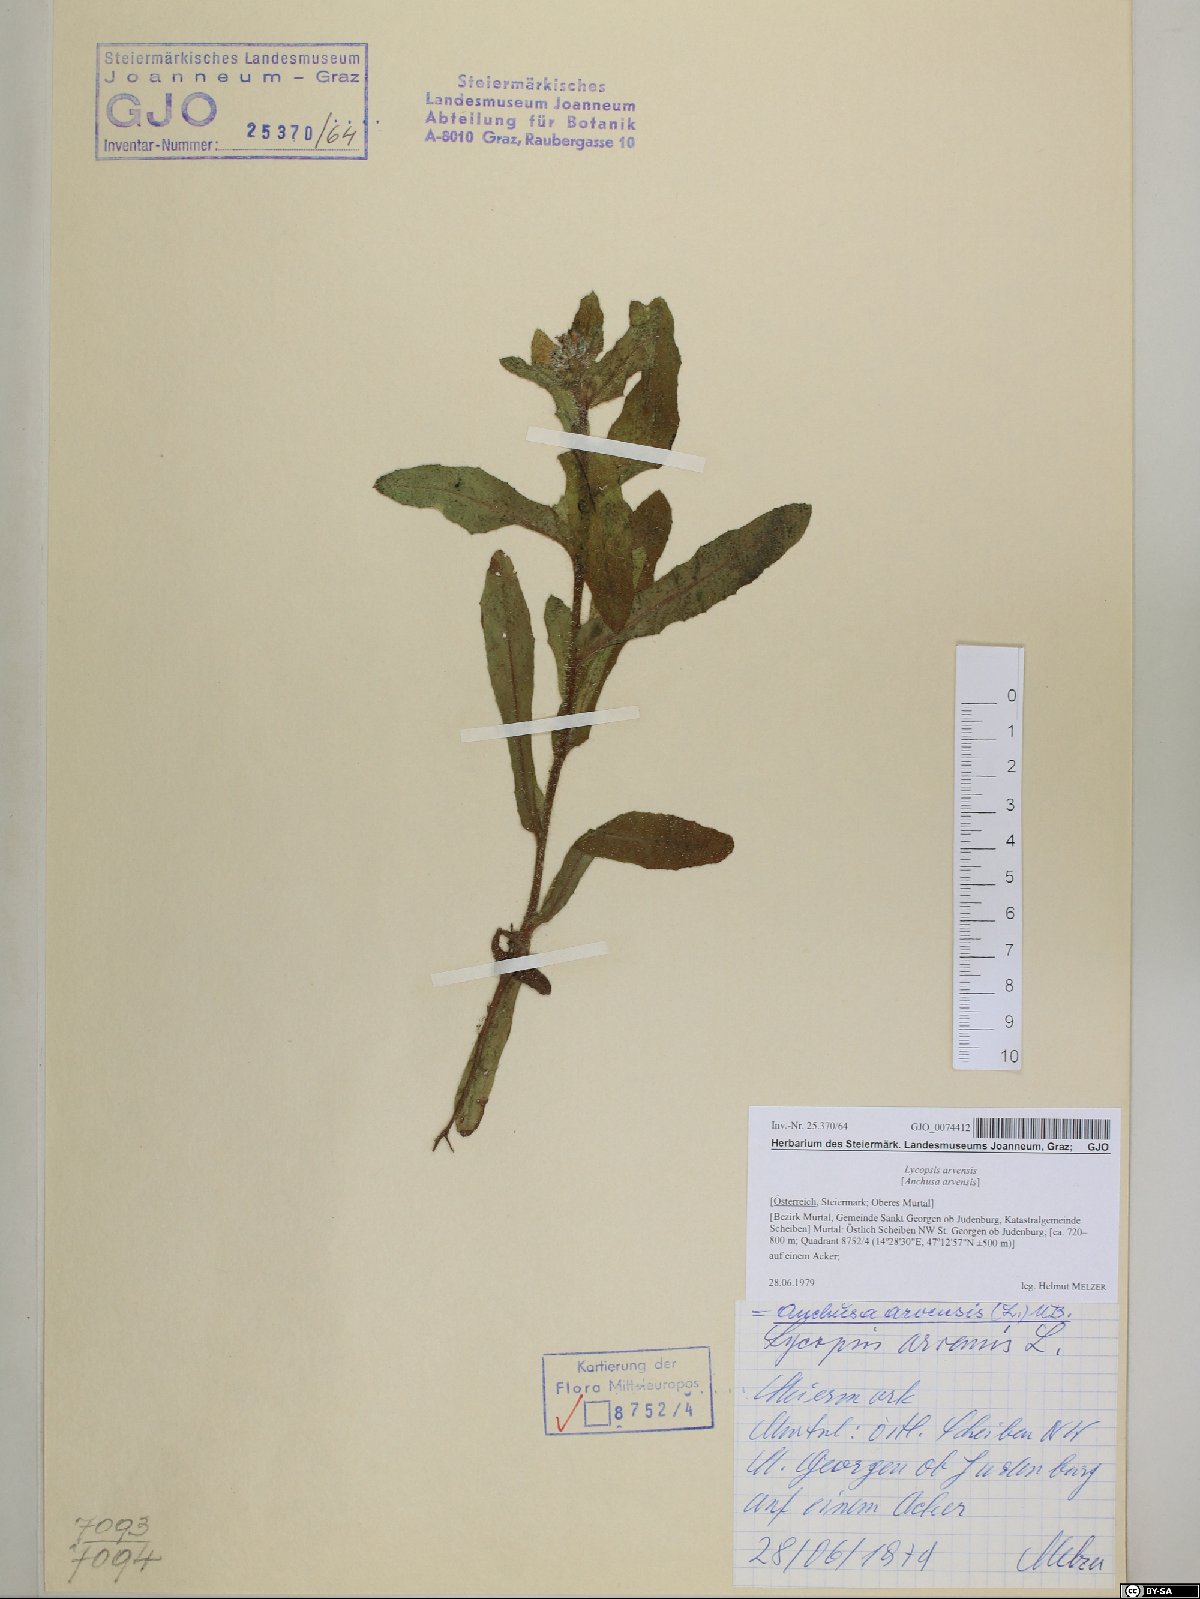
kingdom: Plantae
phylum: Tracheophyta
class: Magnoliopsida
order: Boraginales
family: Boraginaceae
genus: Lycopsis
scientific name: Lycopsis arvensis
